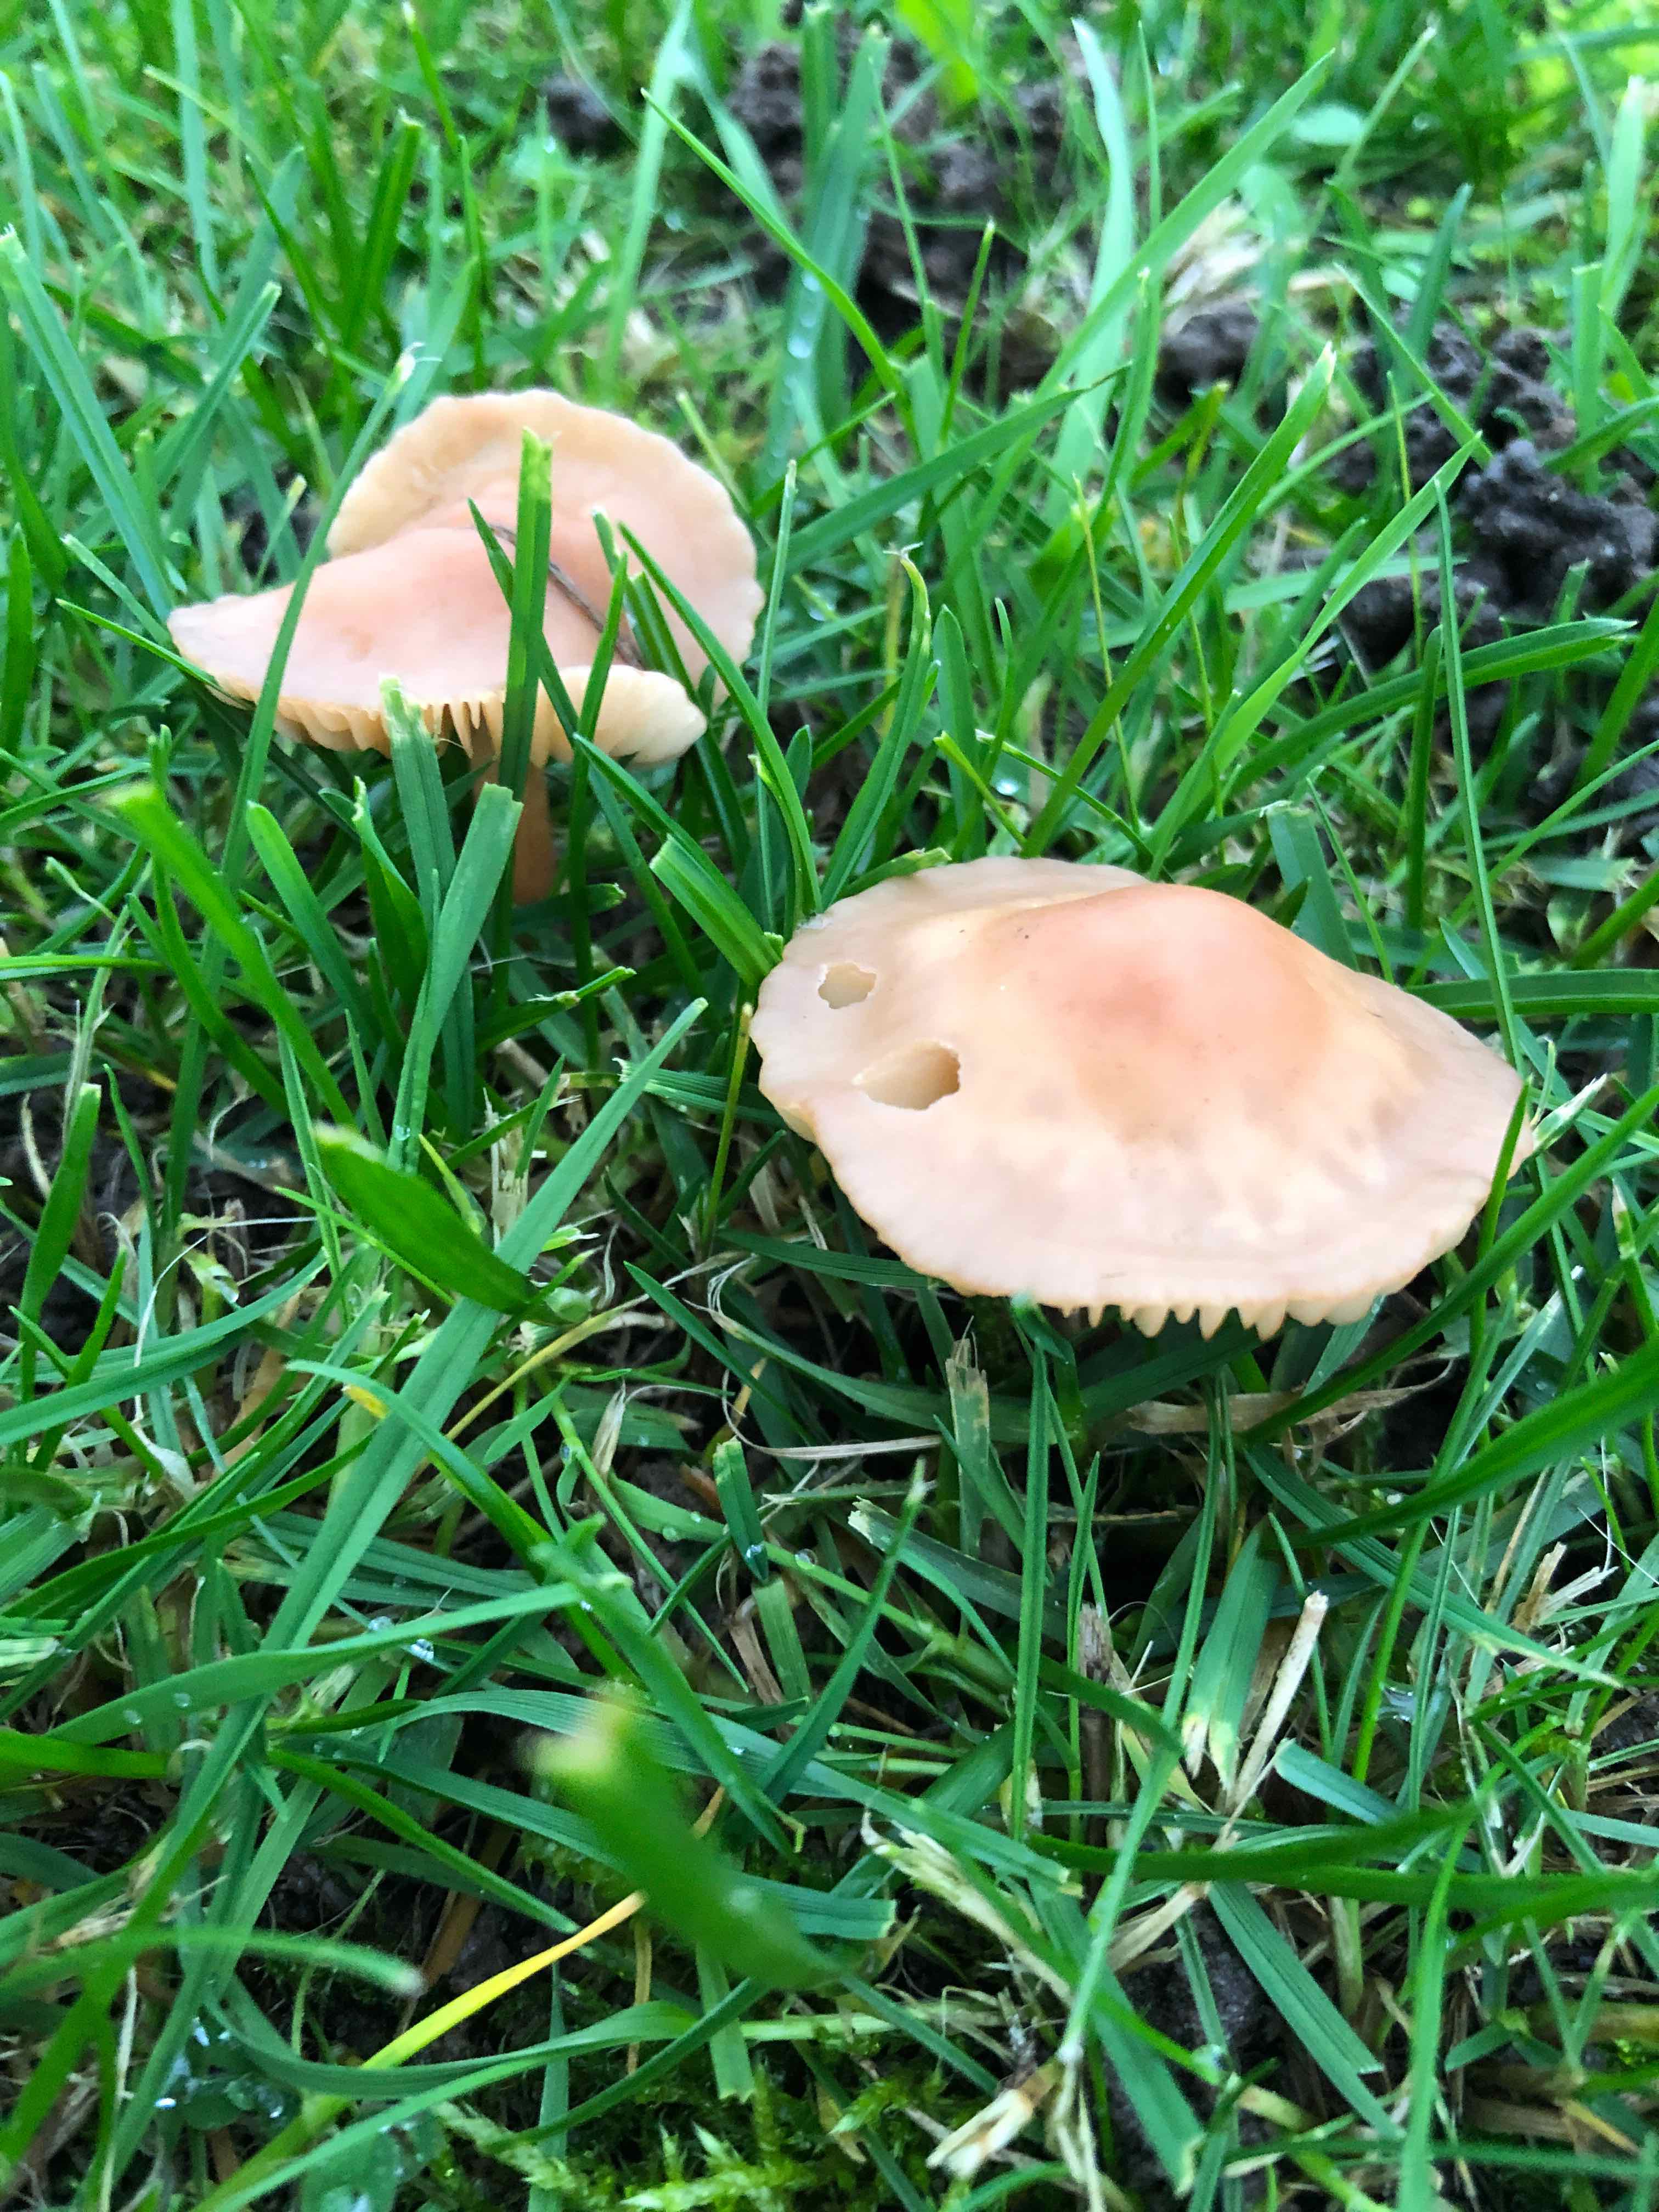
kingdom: Fungi
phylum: Basidiomycota
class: Agaricomycetes
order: Agaricales
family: Marasmiaceae
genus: Marasmius
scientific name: Marasmius oreades
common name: elledans-bruskhat
